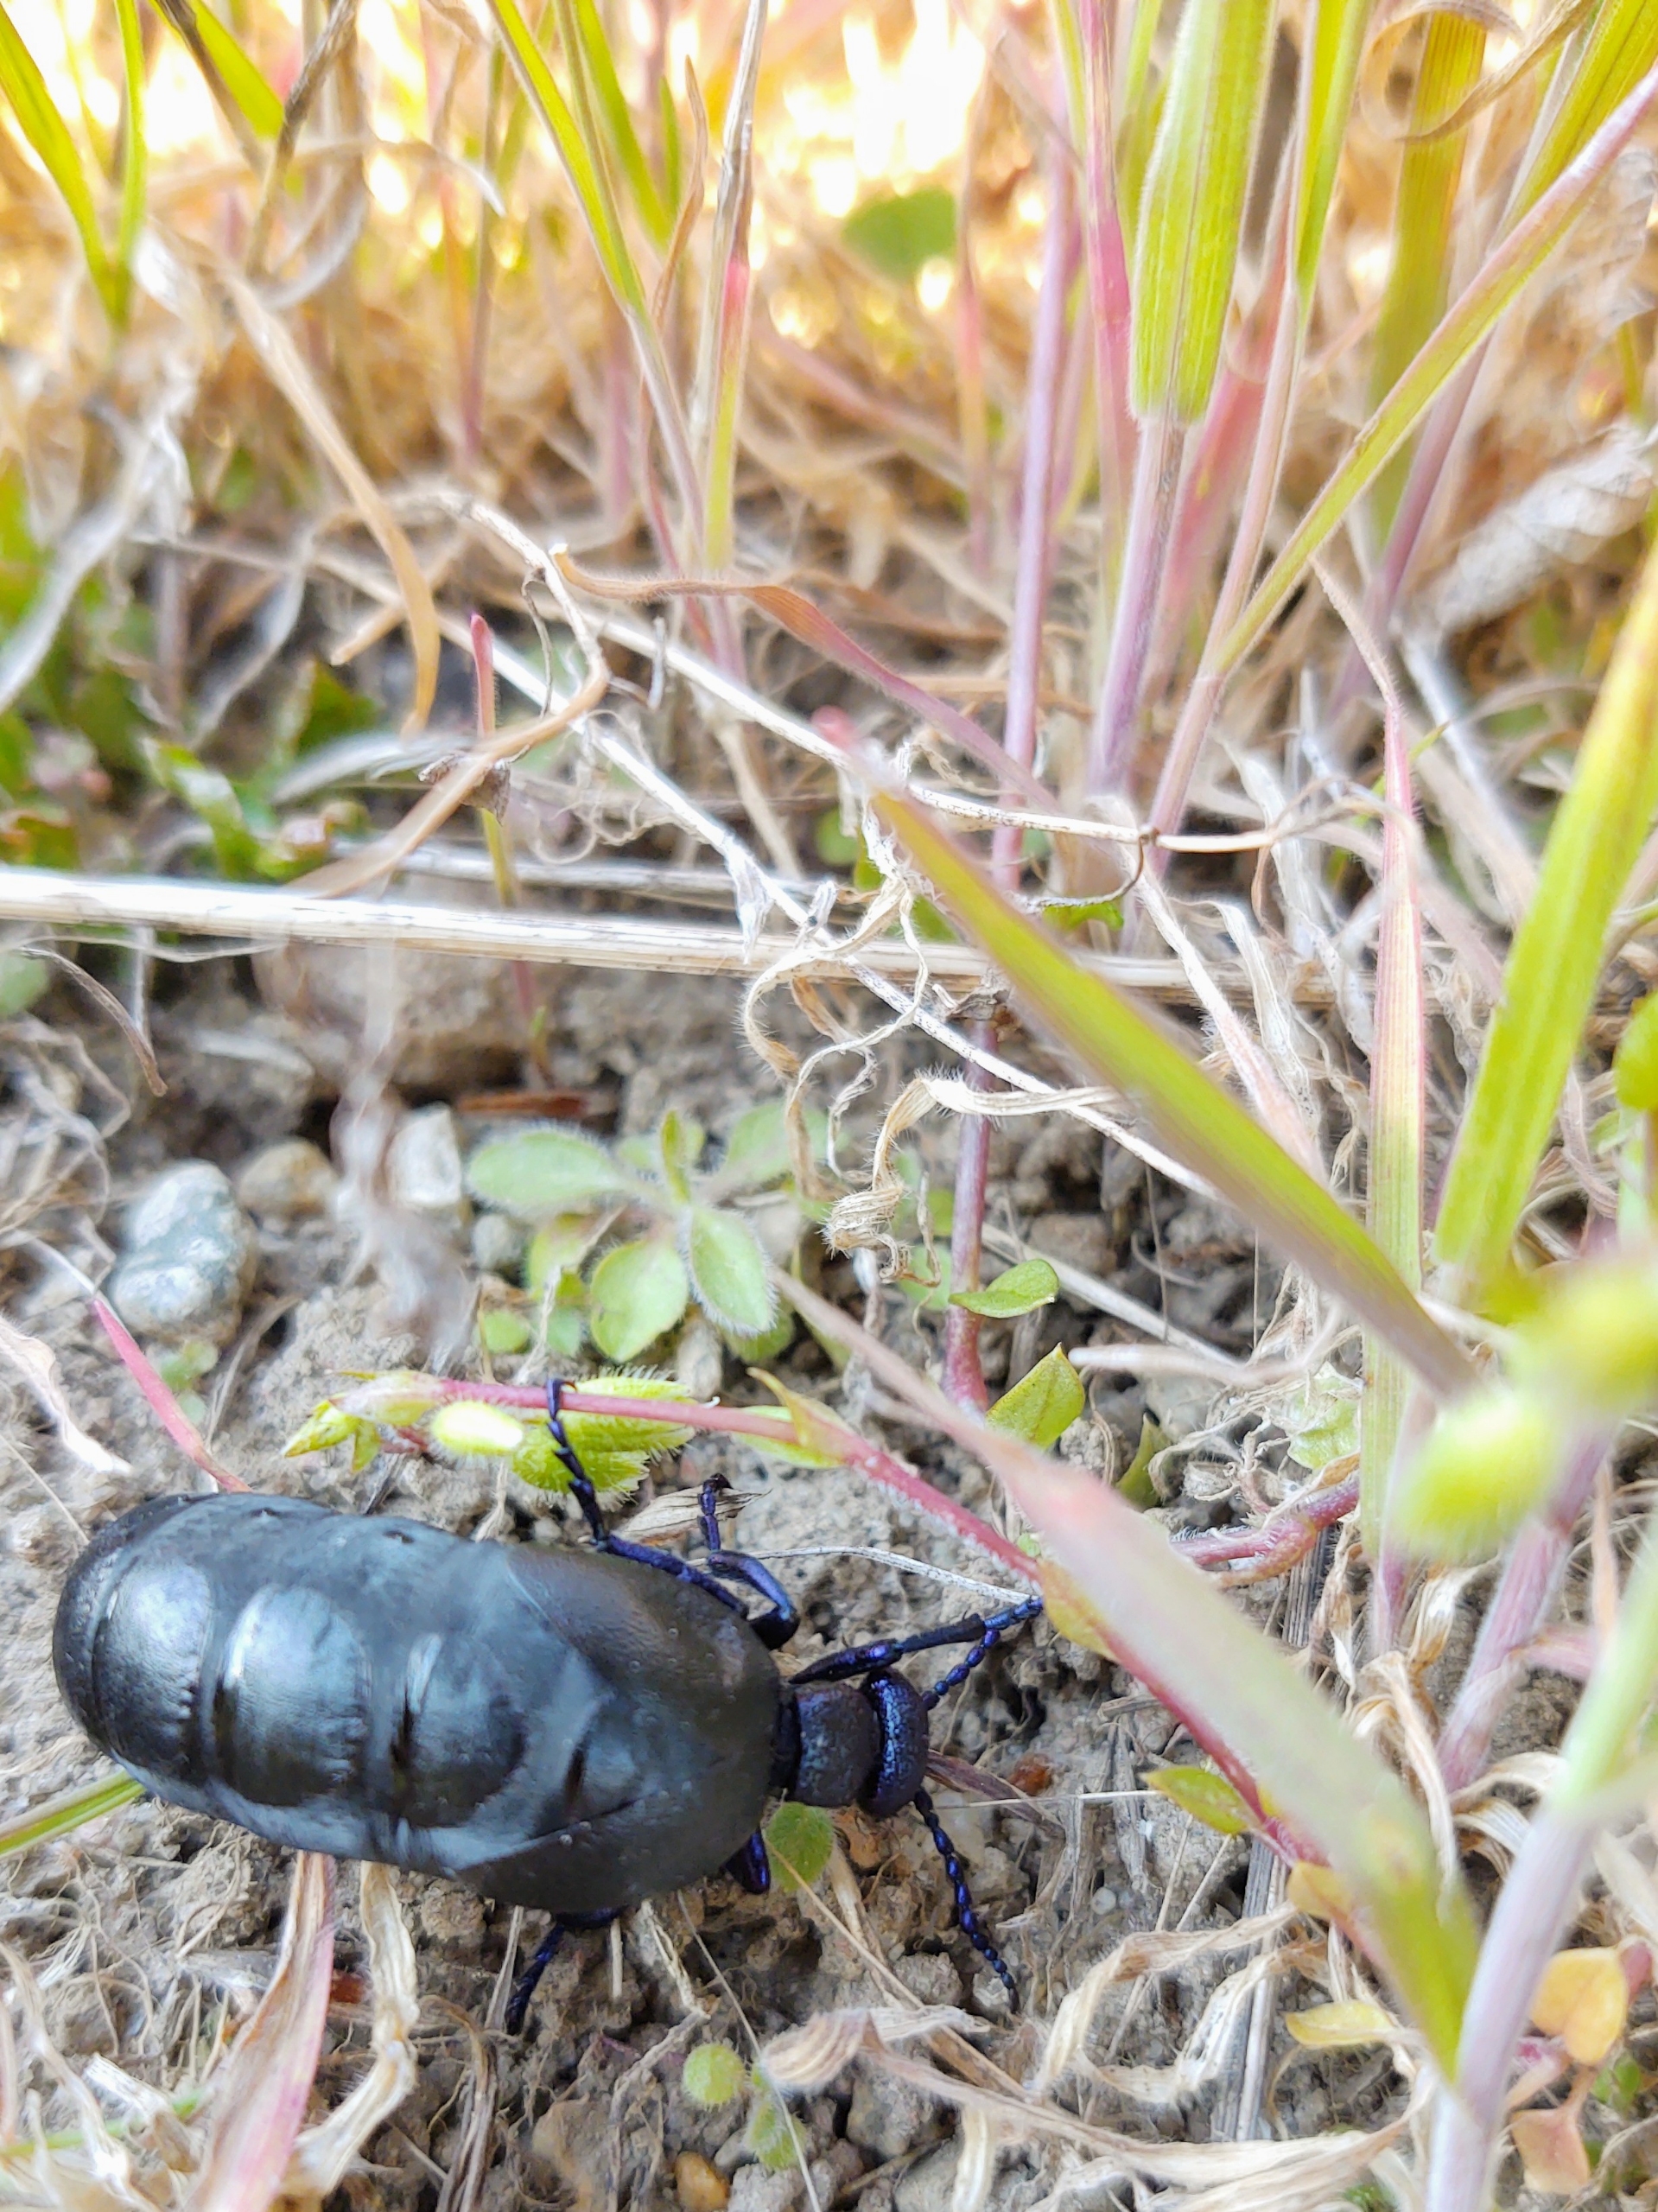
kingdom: Animalia
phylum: Arthropoda
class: Insecta
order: Coleoptera
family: Meloidae
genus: Meloe
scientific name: Meloe violaceus
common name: Blå oliebille
